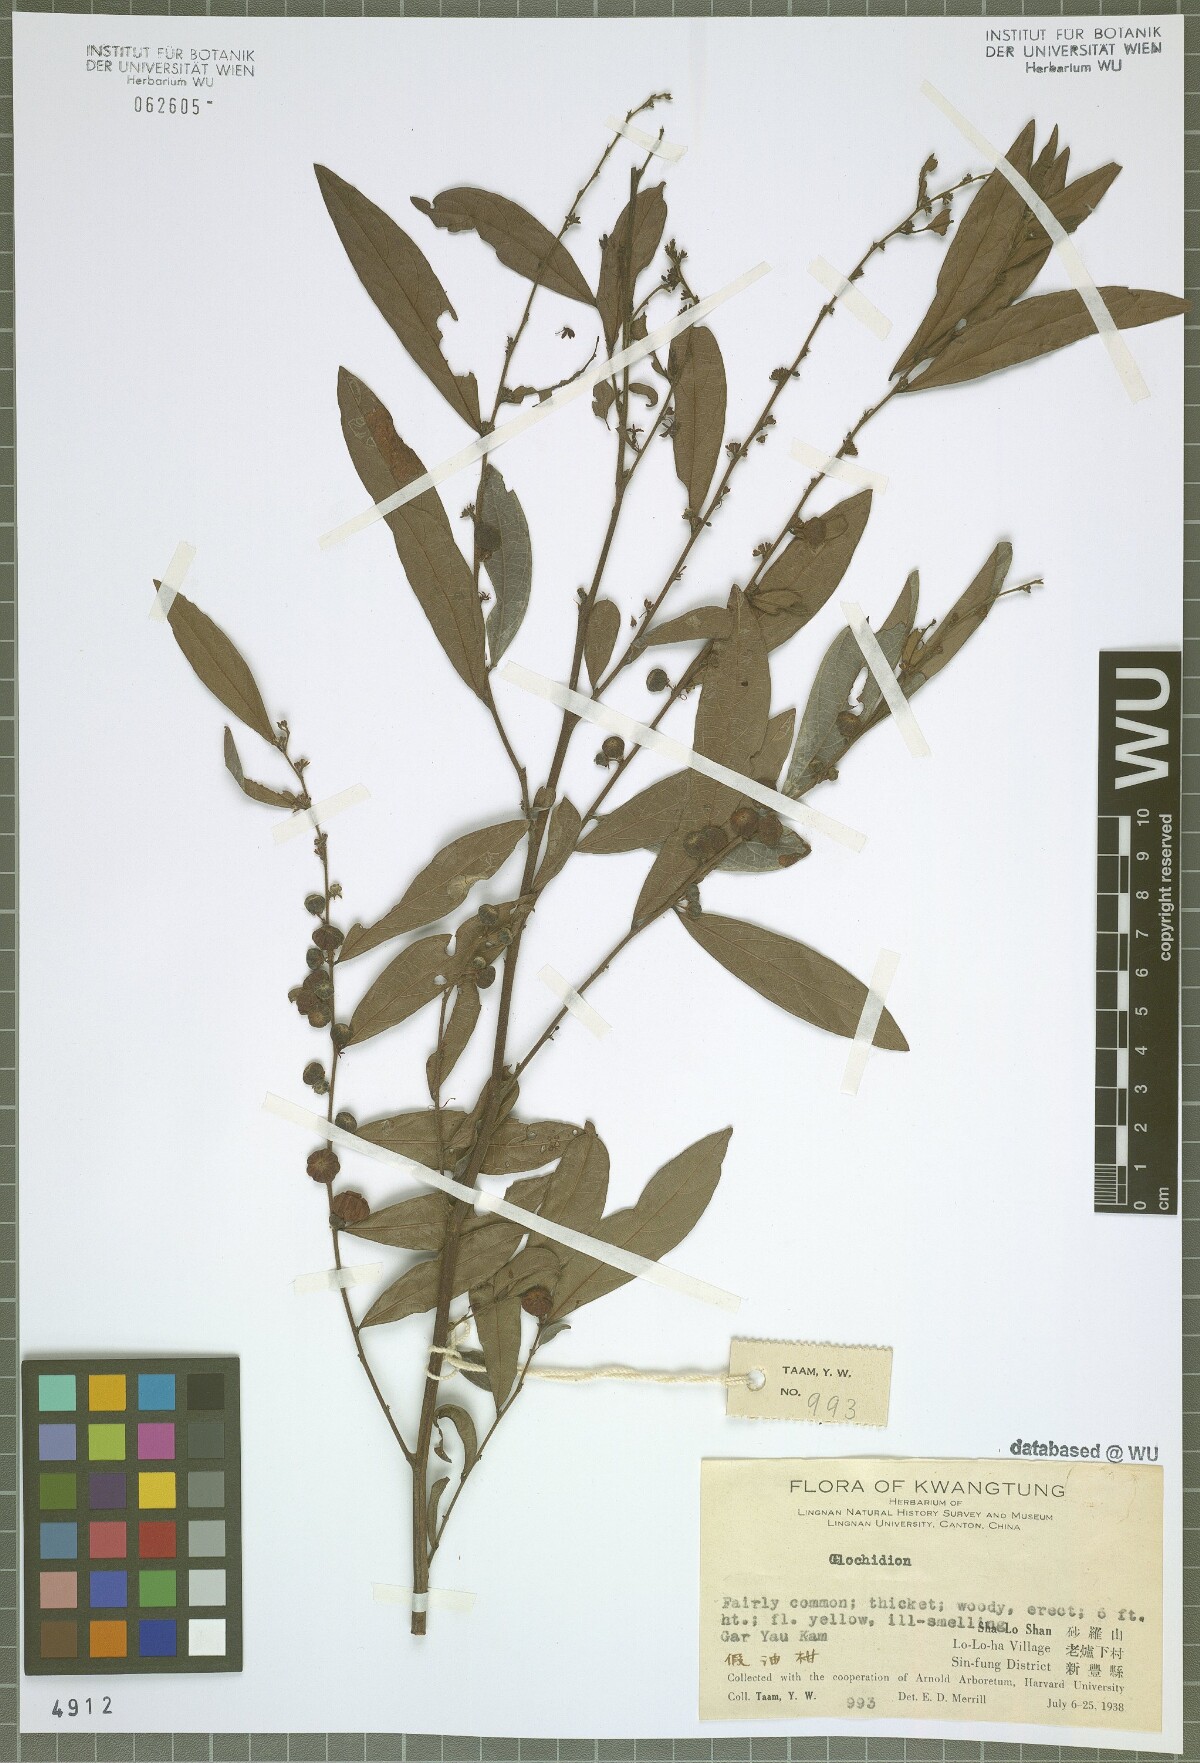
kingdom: Plantae
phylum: Tracheophyta
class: Magnoliopsida
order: Malpighiales
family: Phyllanthaceae
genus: Glochidion
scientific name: Glochidion
